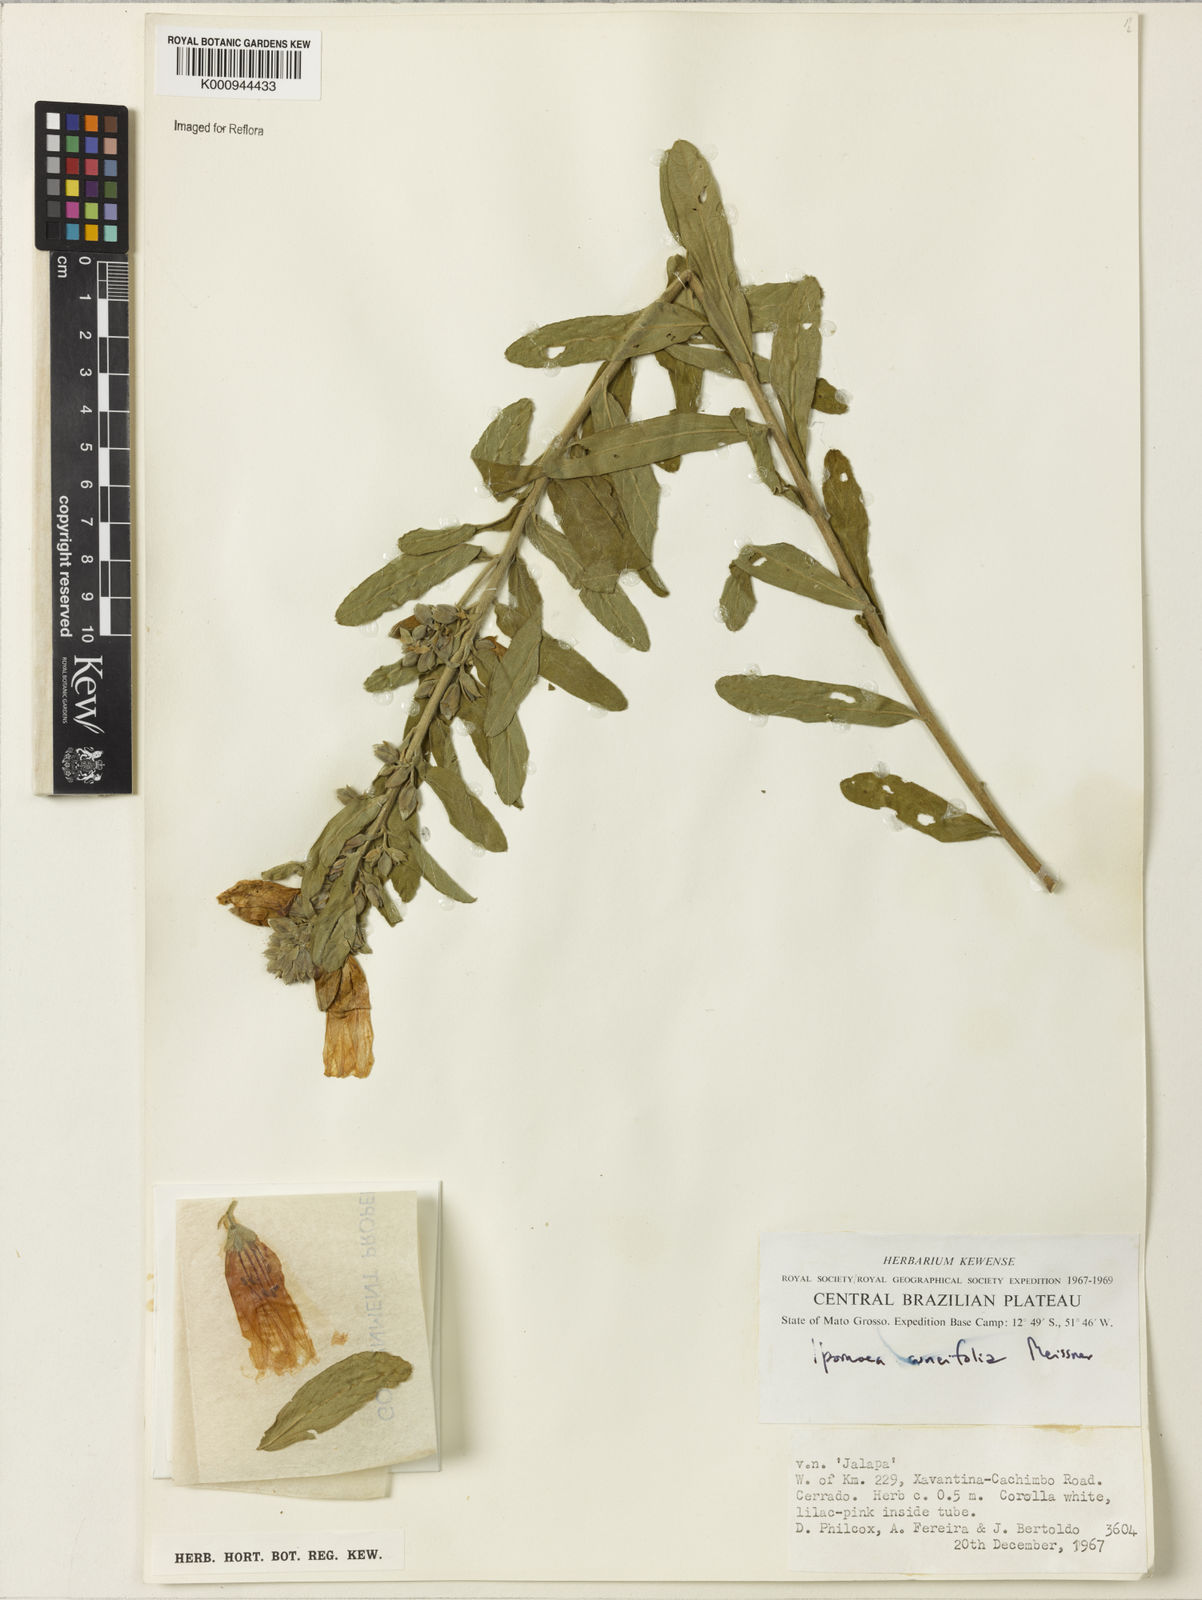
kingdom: Plantae
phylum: Tracheophyta
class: Magnoliopsida
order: Solanales
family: Convolvulaceae
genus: Ipomoea
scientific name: Ipomoea cuneifolia
